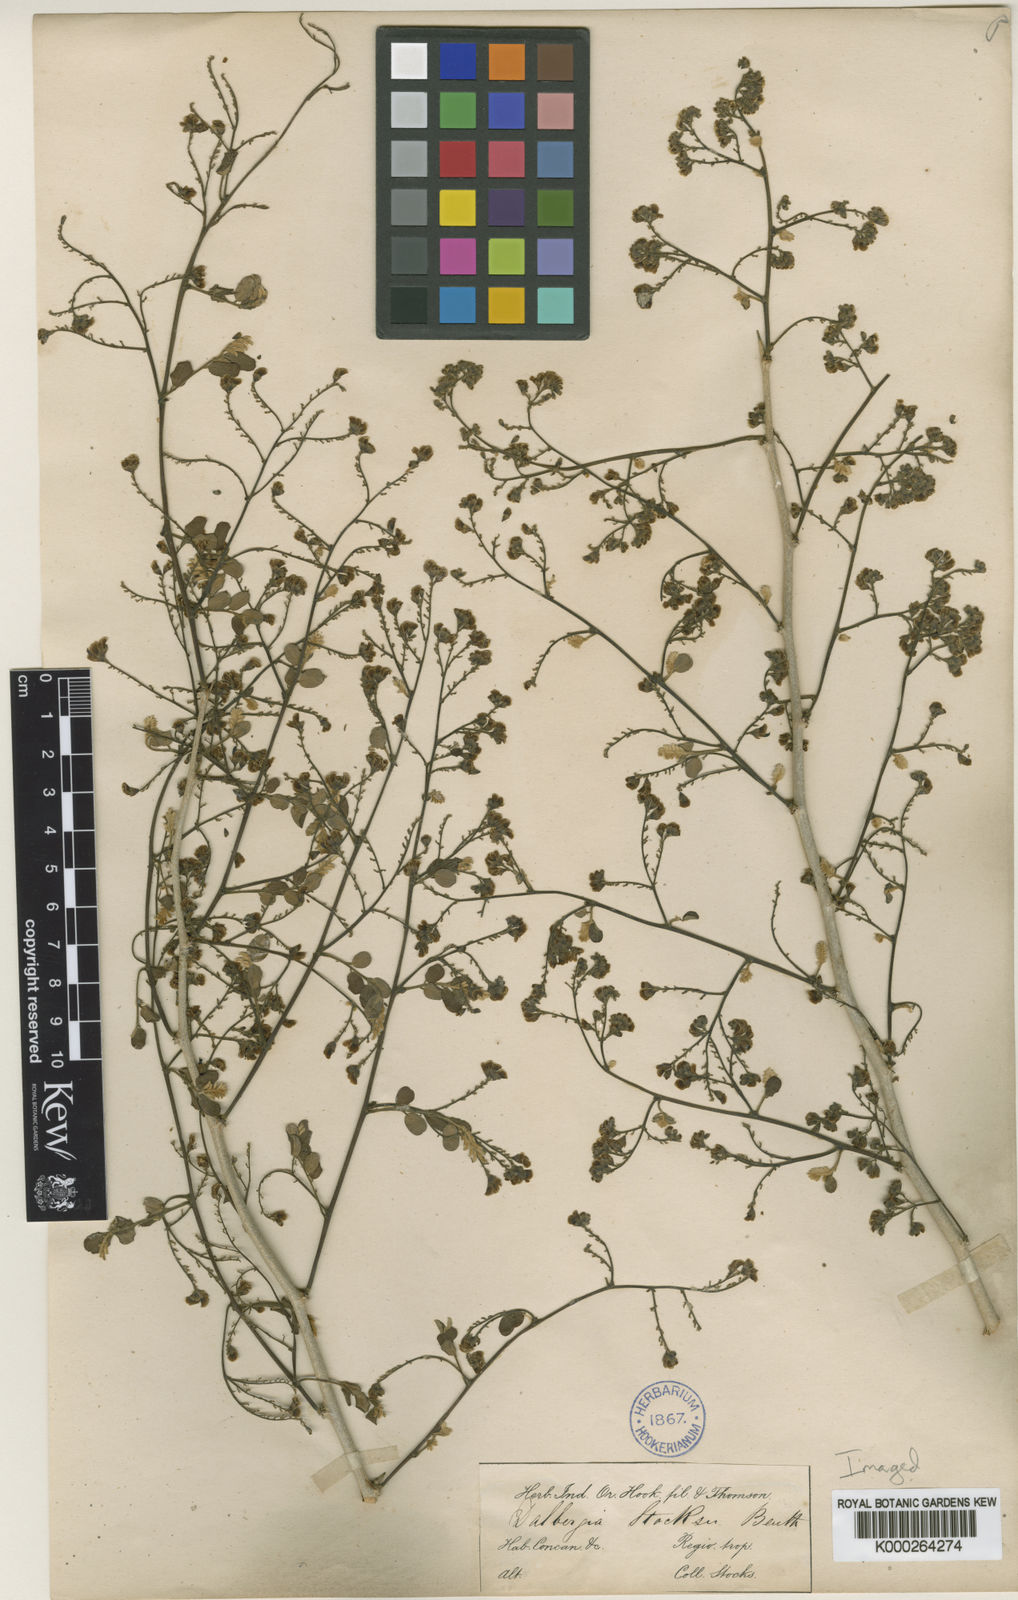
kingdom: Plantae
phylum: Tracheophyta
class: Magnoliopsida
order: Fabales
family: Fabaceae
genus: Dalbergia
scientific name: Dalbergia melanoxylon
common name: African blackwood
